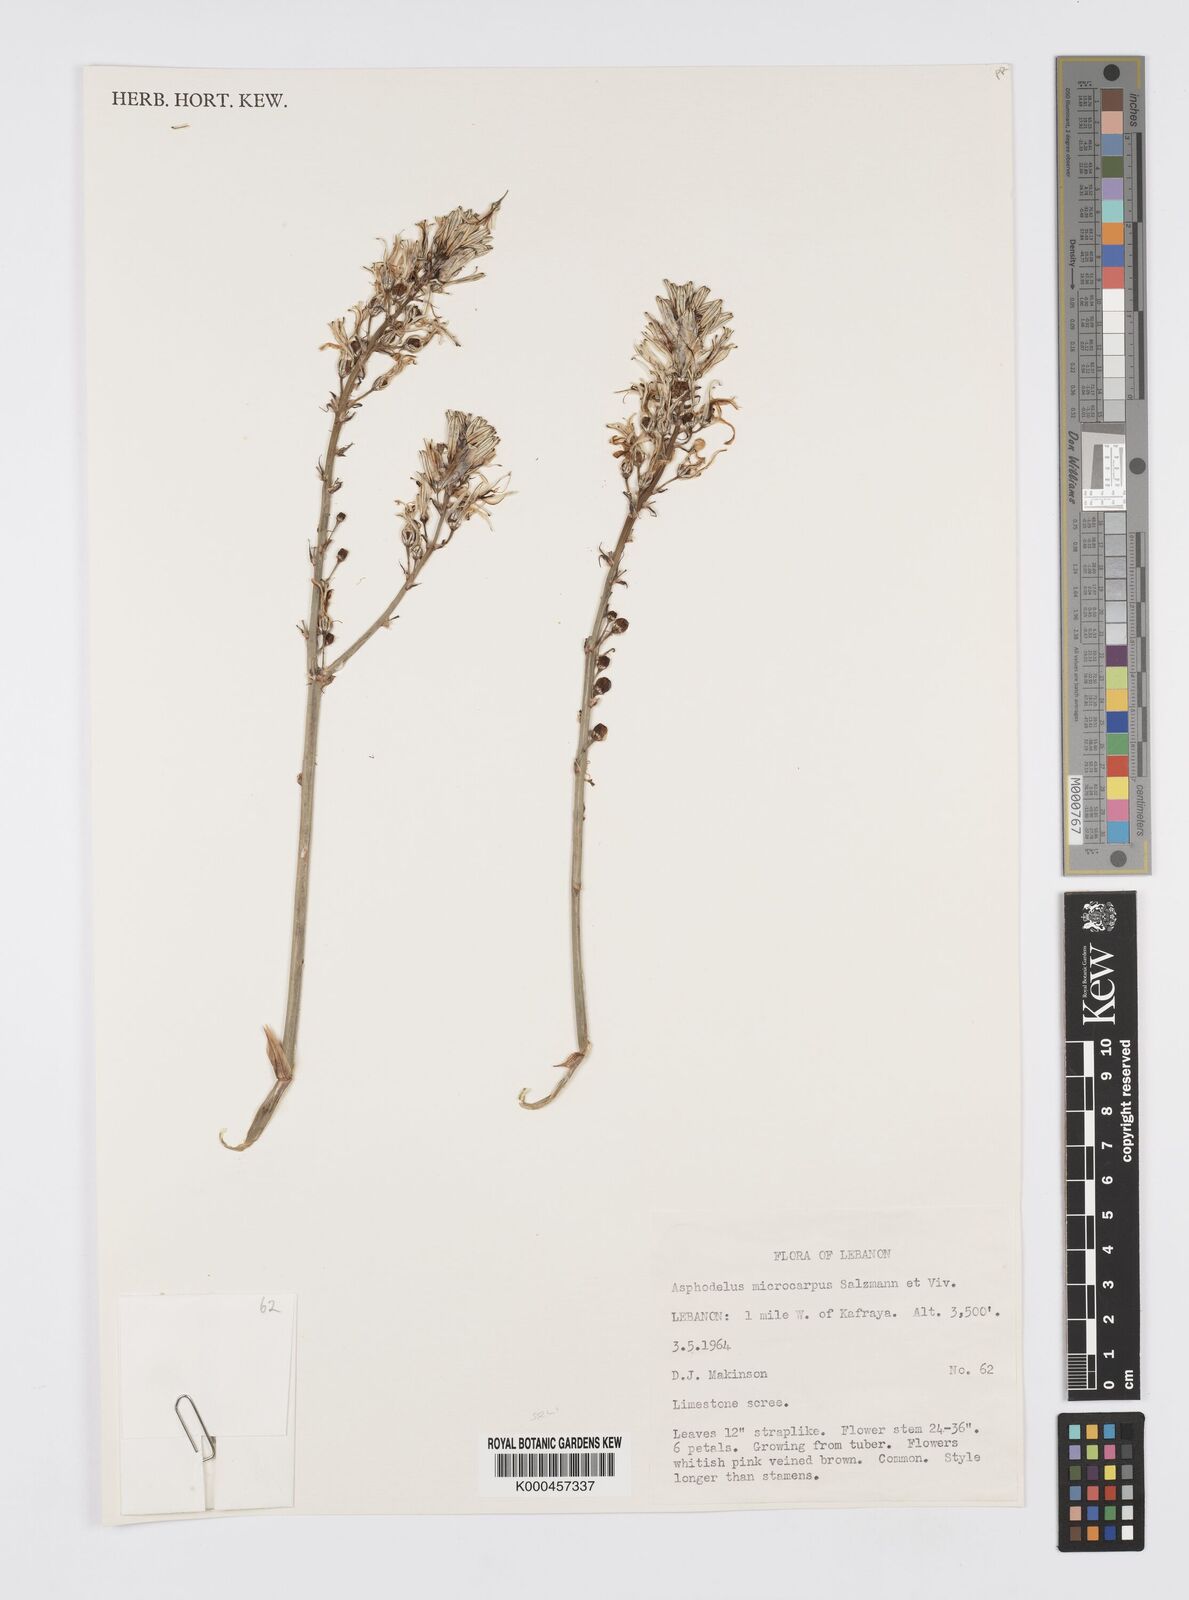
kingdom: Plantae
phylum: Tracheophyta
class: Liliopsida
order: Asparagales
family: Asphodelaceae
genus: Asphodelus
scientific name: Asphodelus aestivus
